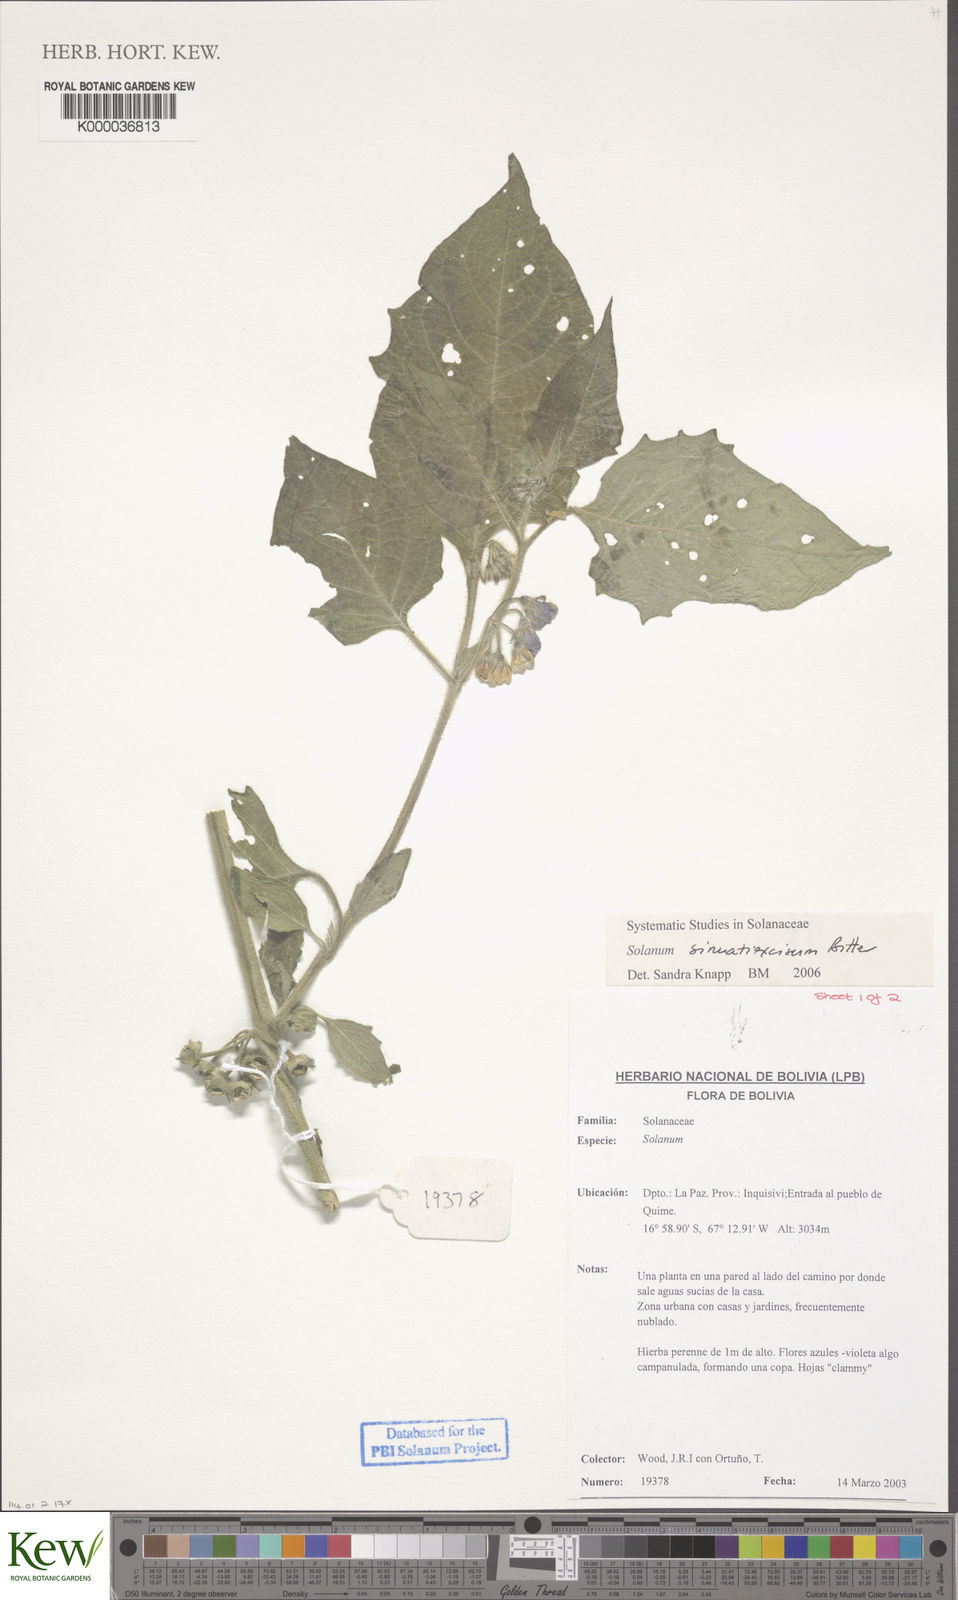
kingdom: Plantae
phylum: Tracheophyta
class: Magnoliopsida
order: Solanales
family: Solanaceae
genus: Solanum
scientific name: Solanum sinuatiexcisum
